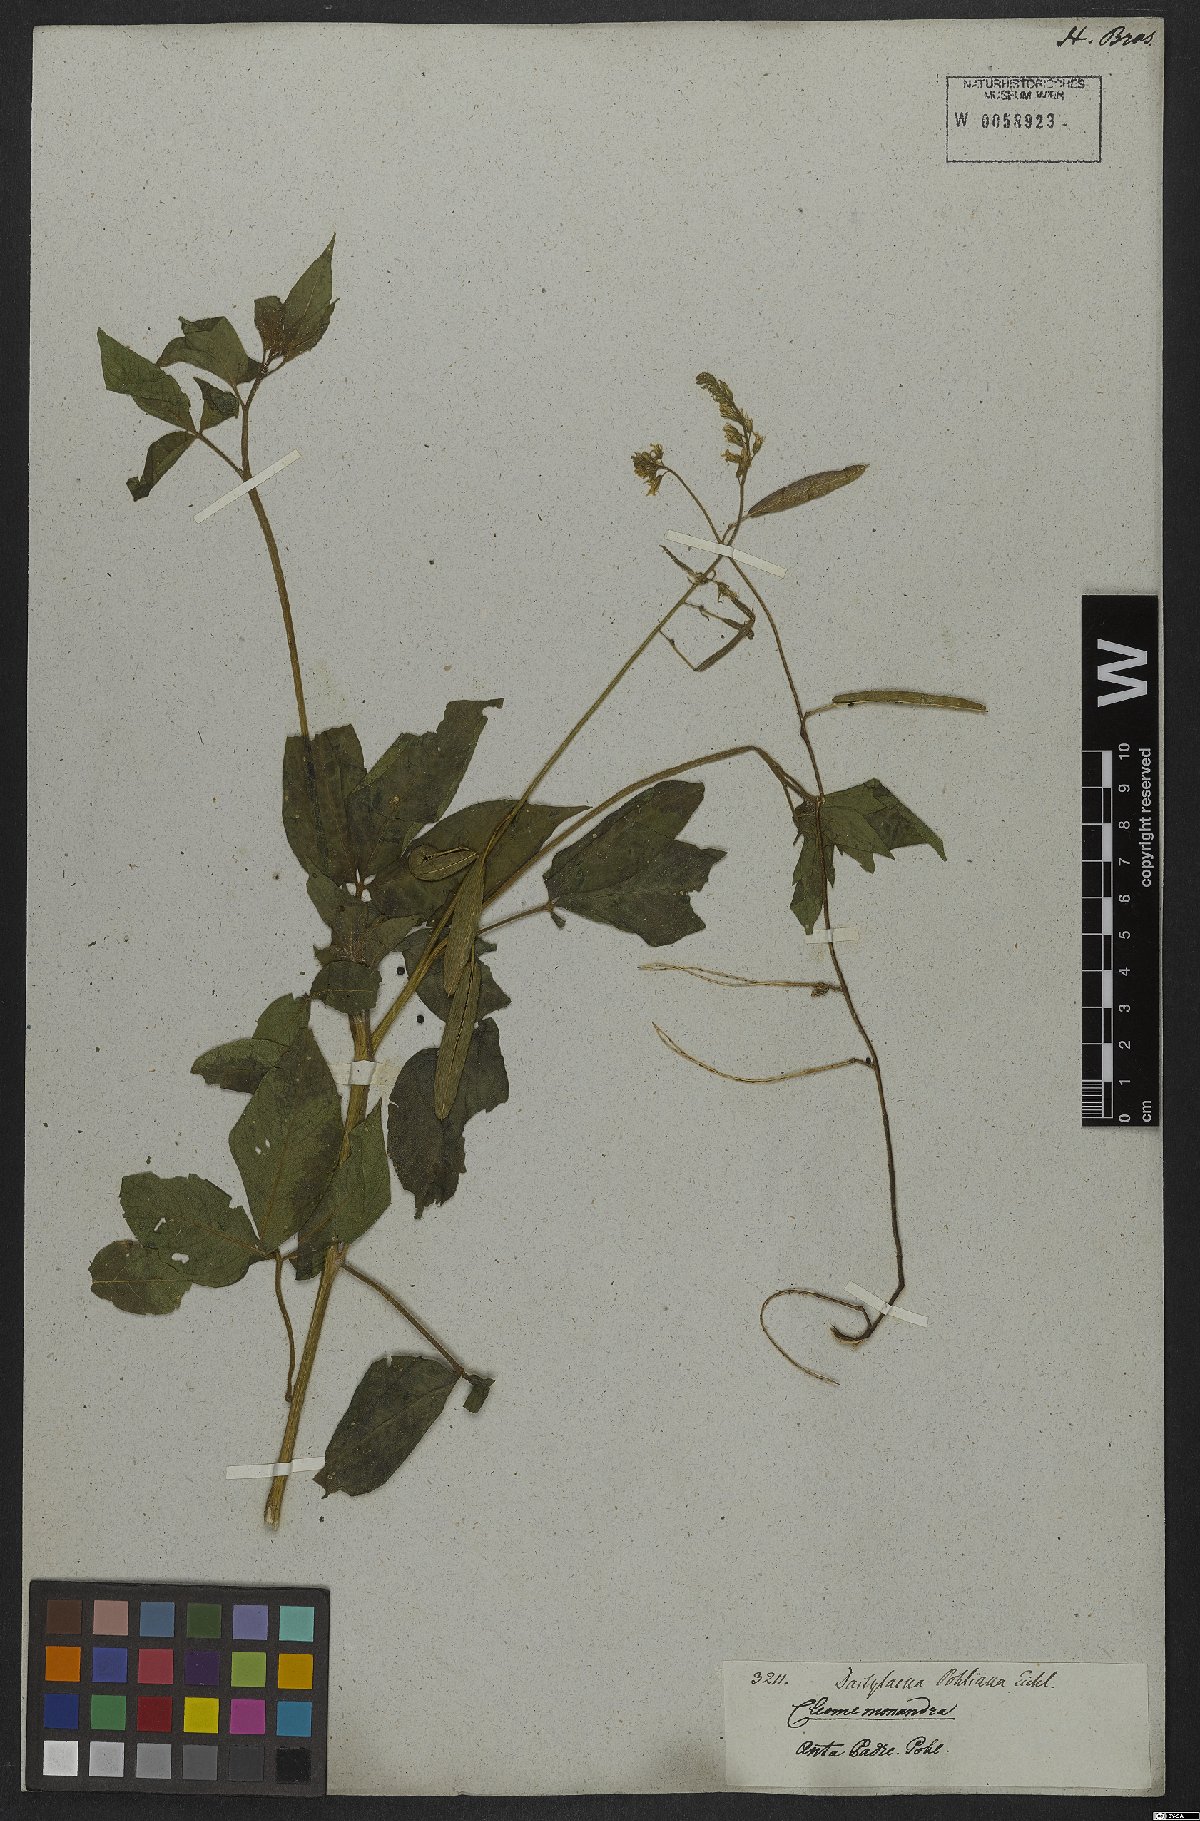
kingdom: Plantae
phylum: Tracheophyta
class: Magnoliopsida
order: Brassicales
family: Cleomaceae
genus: Dactylaena
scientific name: Dactylaena pohliana
